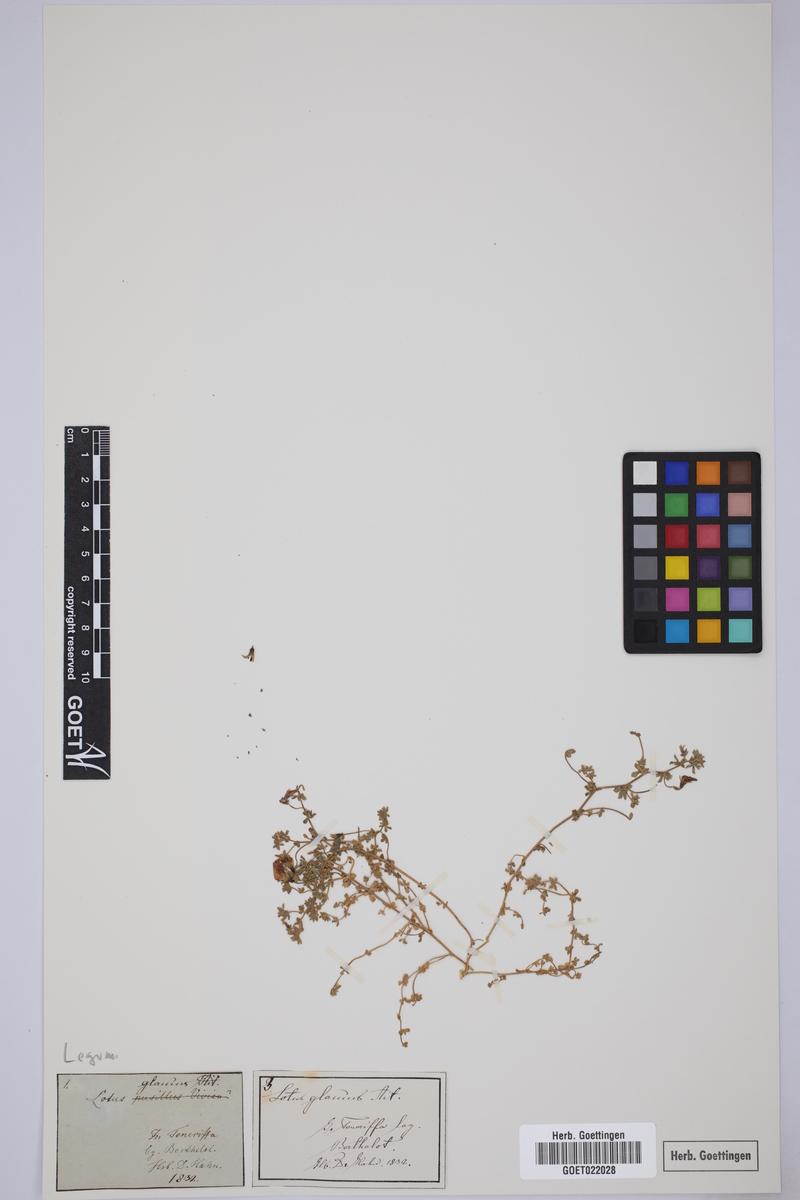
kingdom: Plantae
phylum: Tracheophyta
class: Magnoliopsida
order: Fabales
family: Fabaceae
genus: Lotus
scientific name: Lotus glaucus
